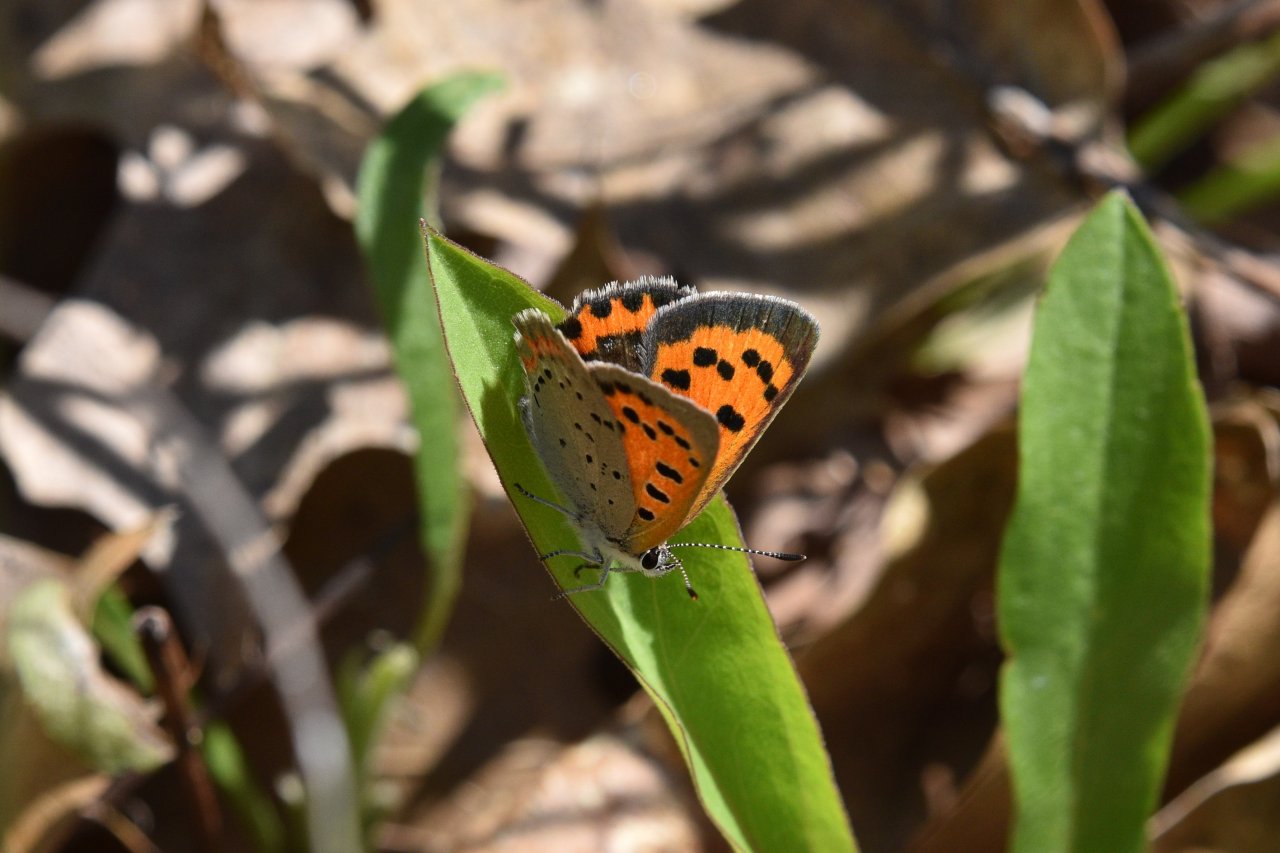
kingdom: Animalia
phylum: Arthropoda
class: Insecta
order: Lepidoptera
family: Lycaenidae
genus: Lycaena
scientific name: Lycaena phlaeas
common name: American Copper
